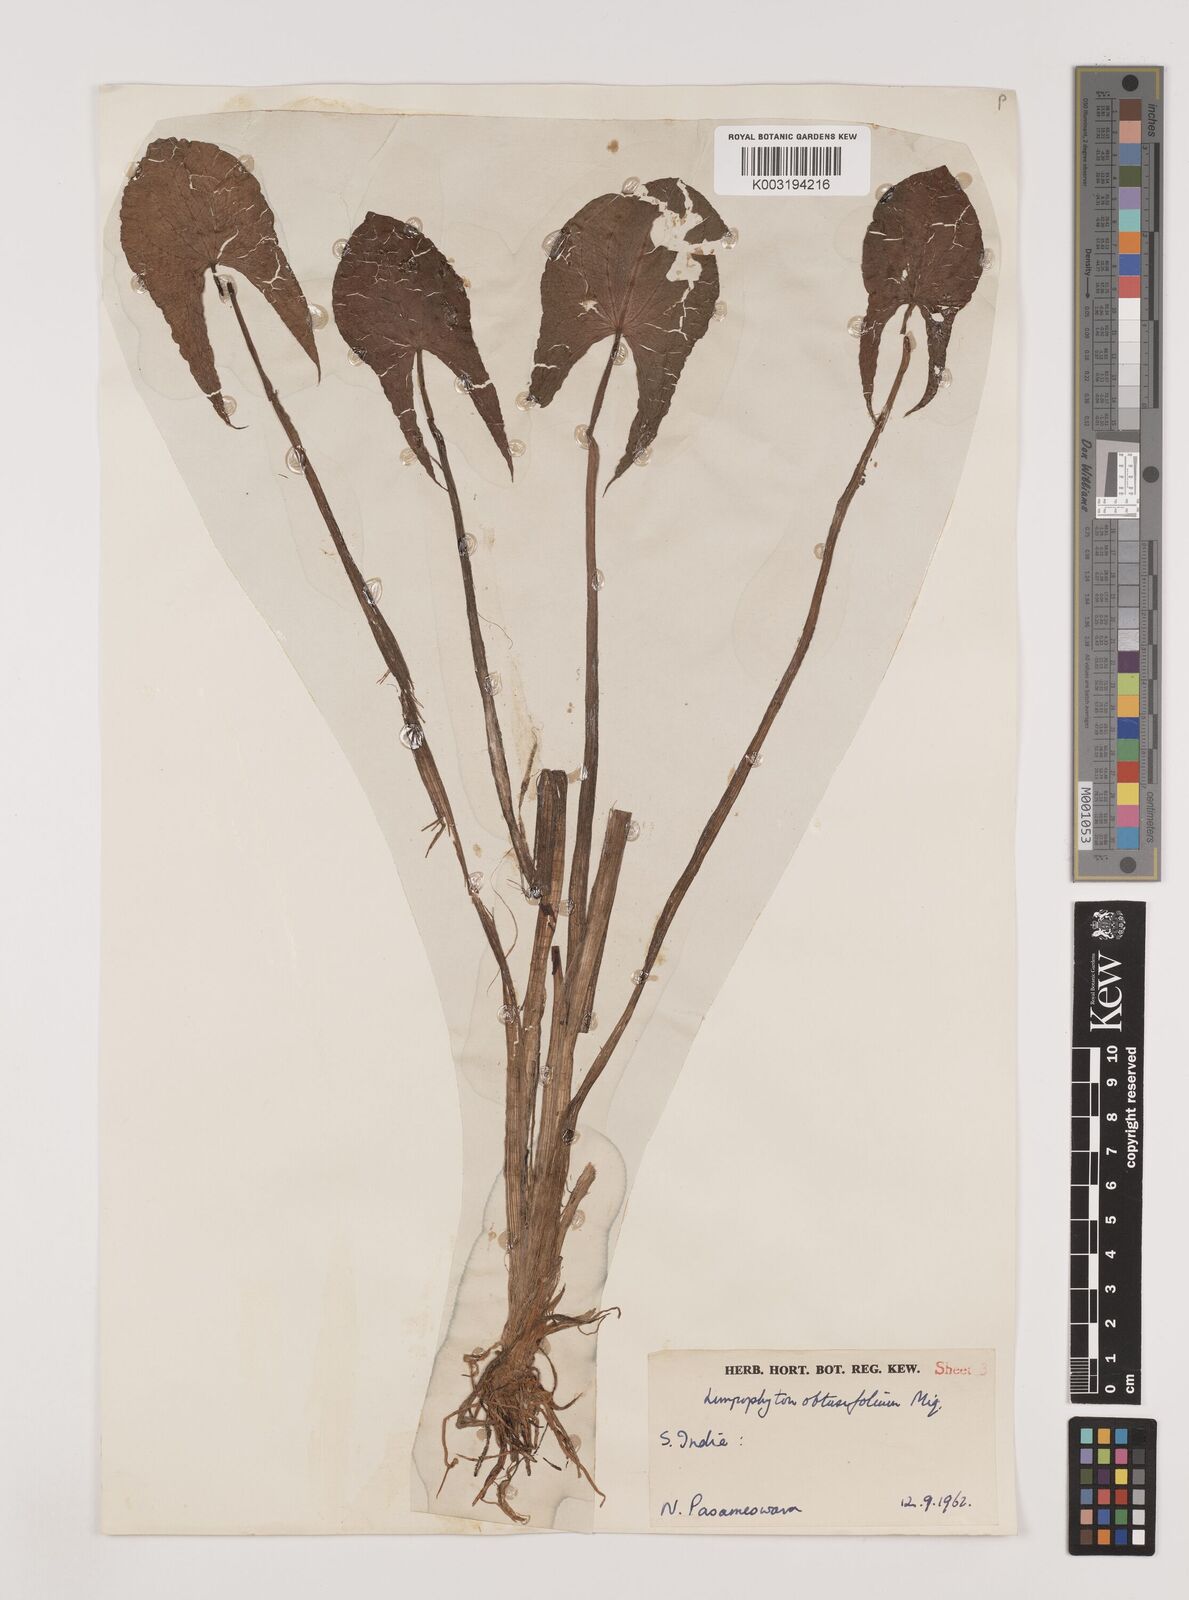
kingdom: Plantae
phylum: Tracheophyta
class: Liliopsida
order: Alismatales
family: Alismataceae
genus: Limnophyton
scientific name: Limnophyton obtusifolium
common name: Arrow head
